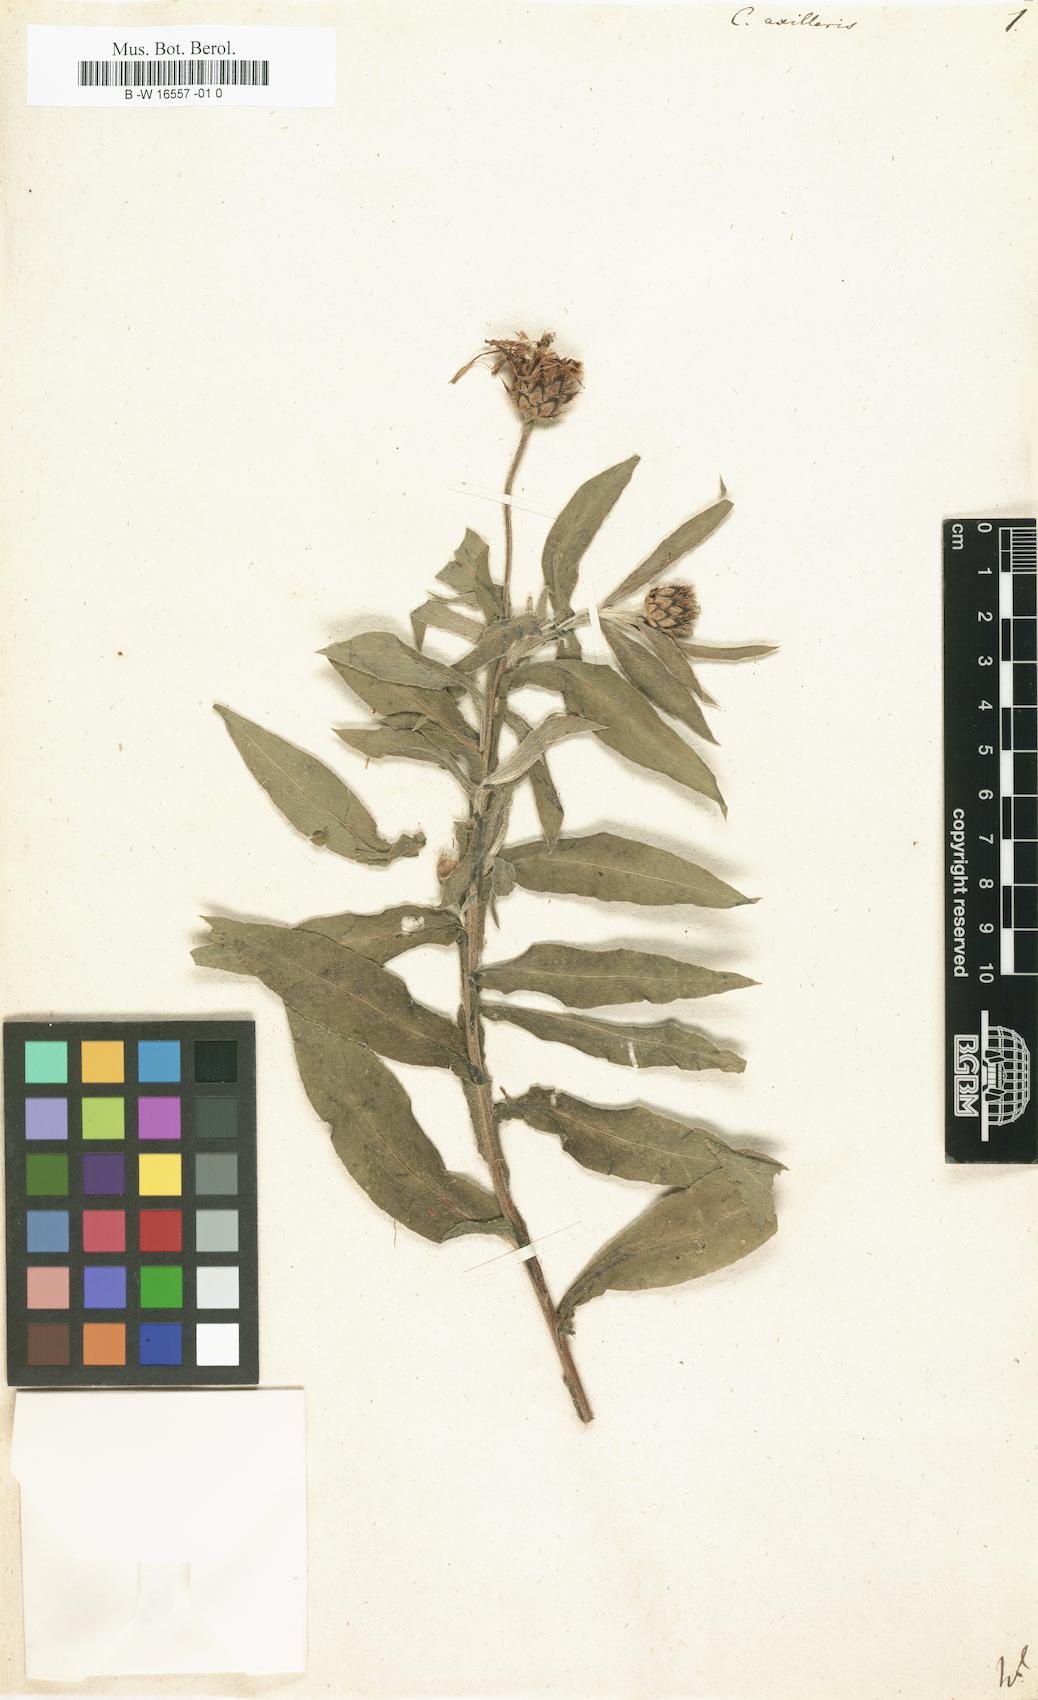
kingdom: Plantae
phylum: Tracheophyta
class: Magnoliopsida
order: Asterales
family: Asteraceae
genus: Centaurea
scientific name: Centaurea triumfettii
